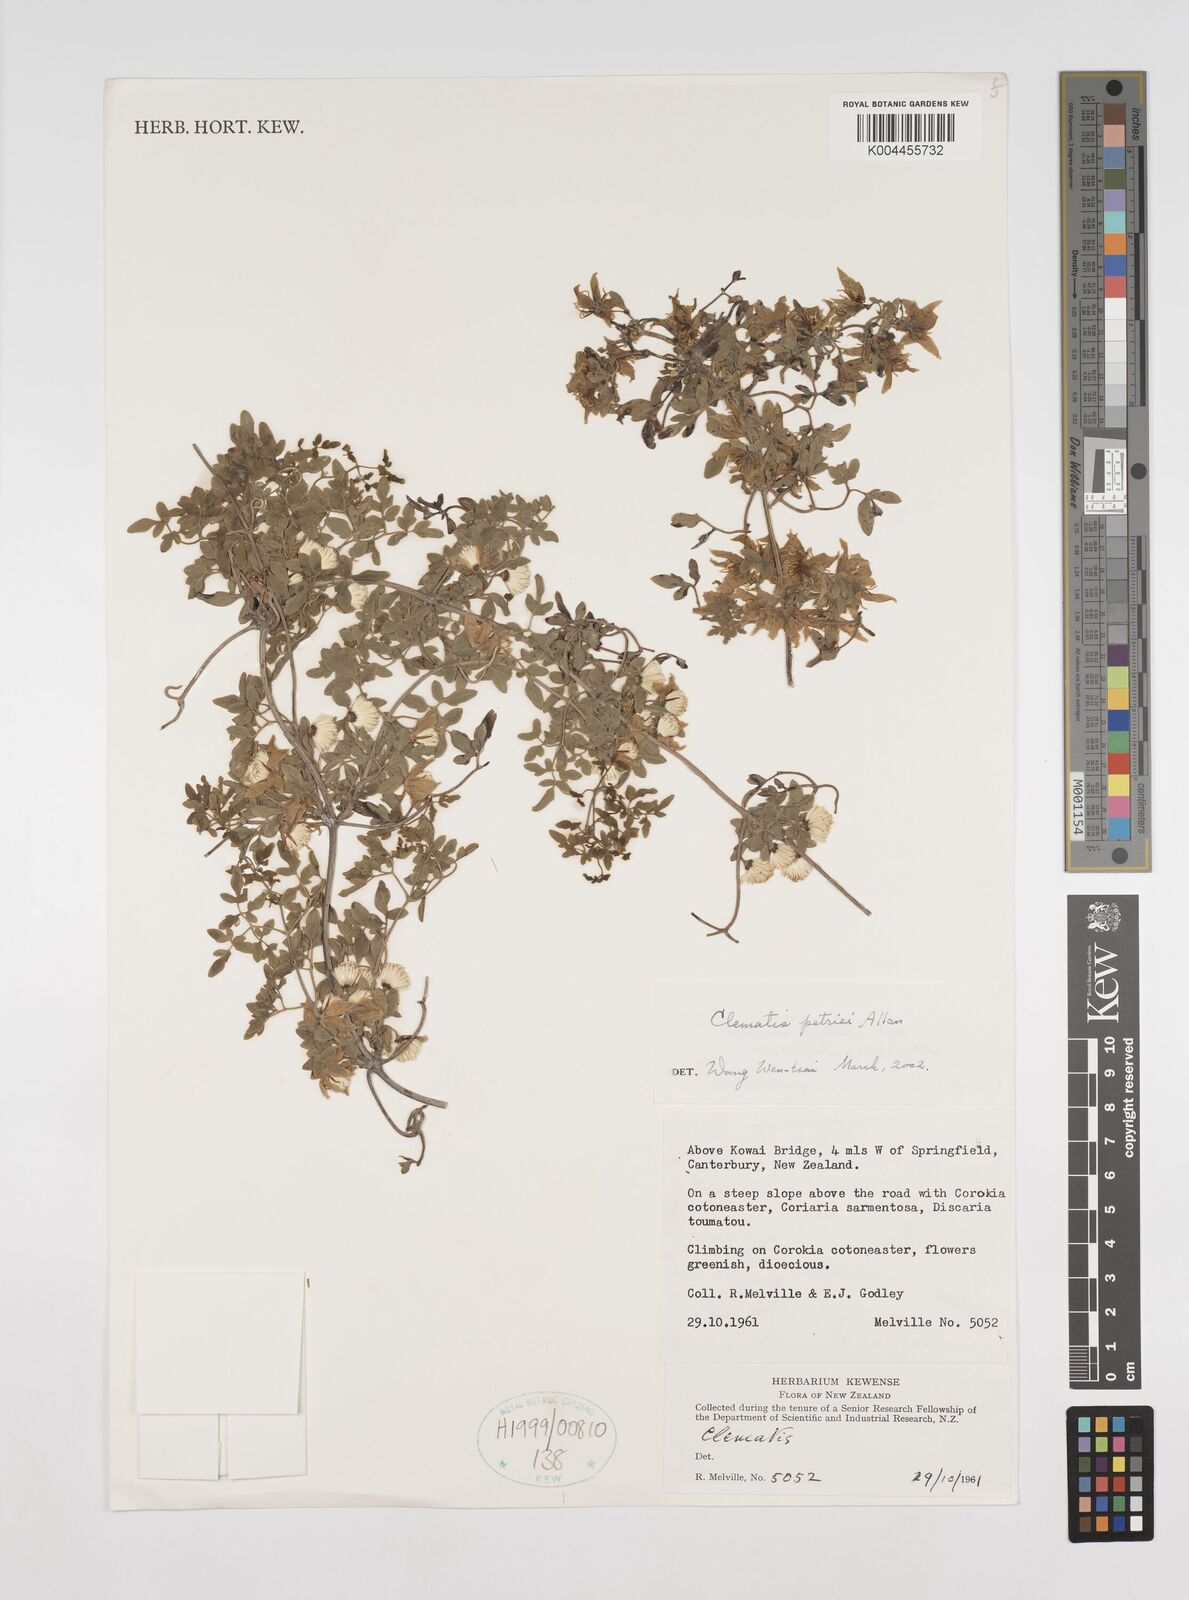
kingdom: Plantae
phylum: Tracheophyta
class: Magnoliopsida
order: Ranunculales
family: Ranunculaceae
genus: Clematis
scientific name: Clematis petriei
